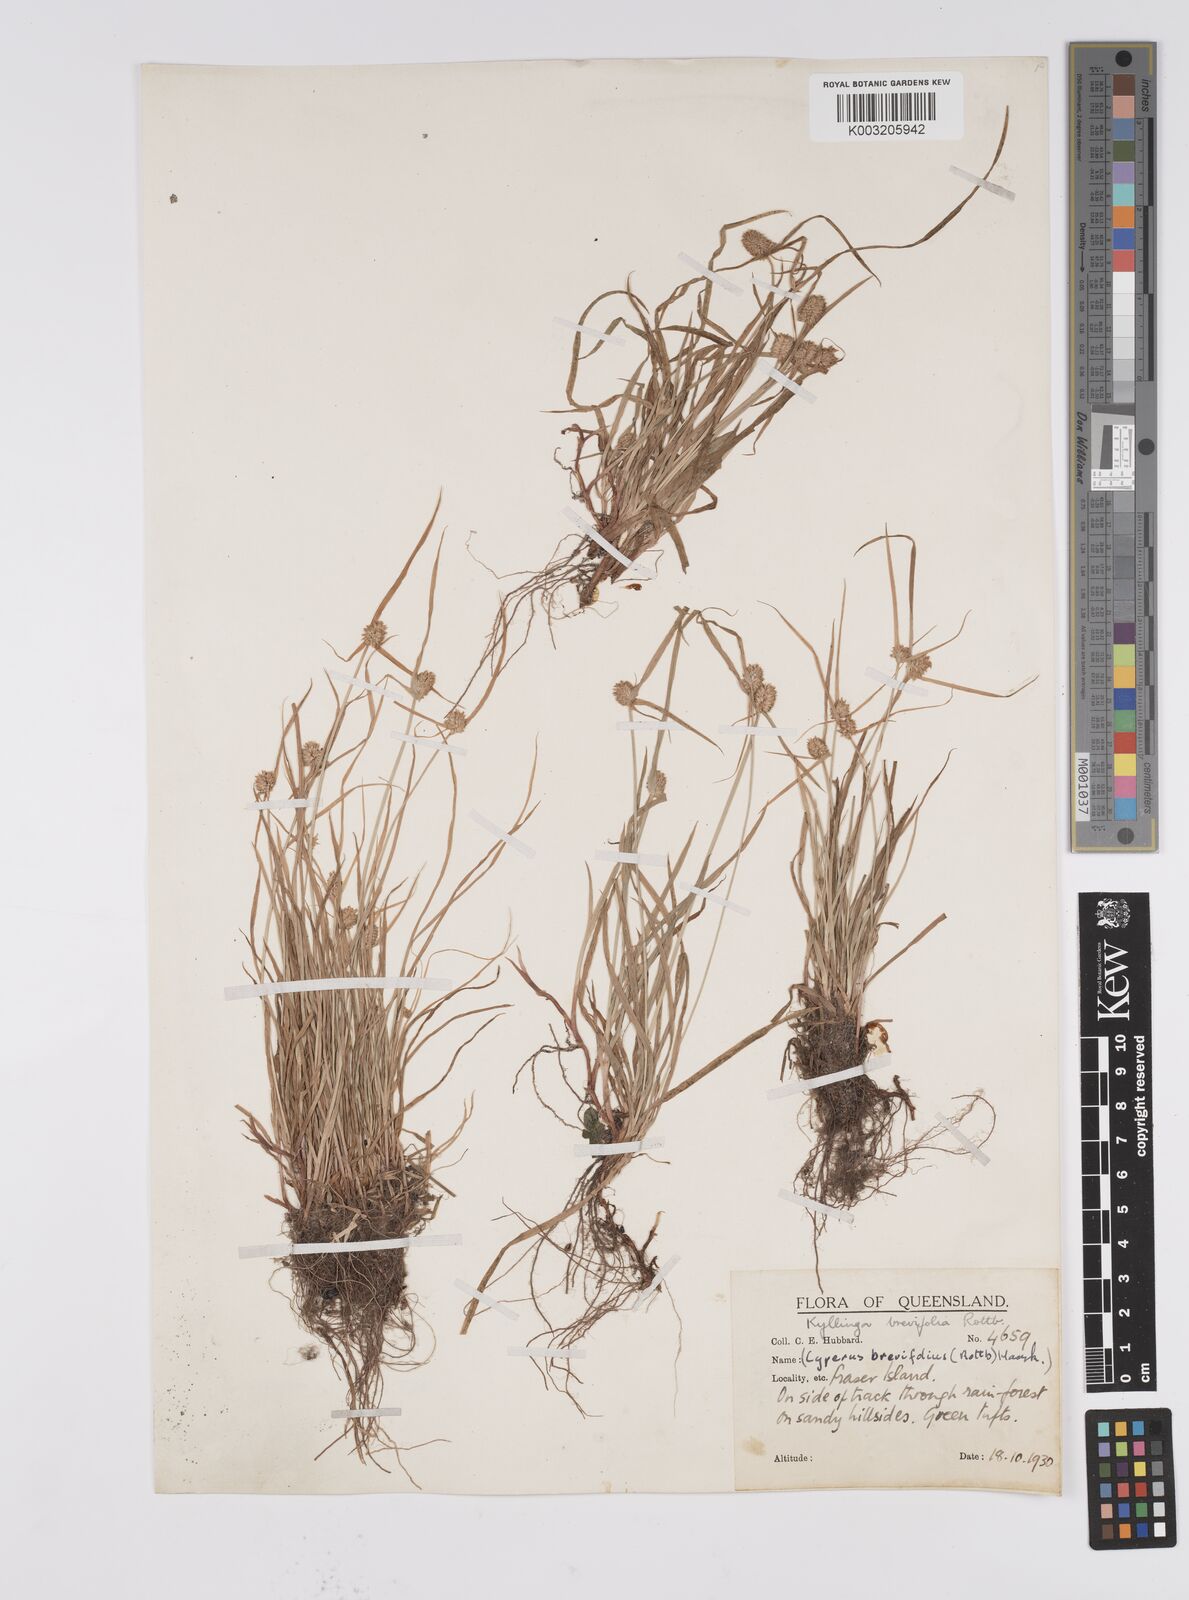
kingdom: Plantae
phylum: Tracheophyta
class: Liliopsida
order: Poales
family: Cyperaceae
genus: Cyperus
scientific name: Cyperus brevifolius
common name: Globe kyllinga
